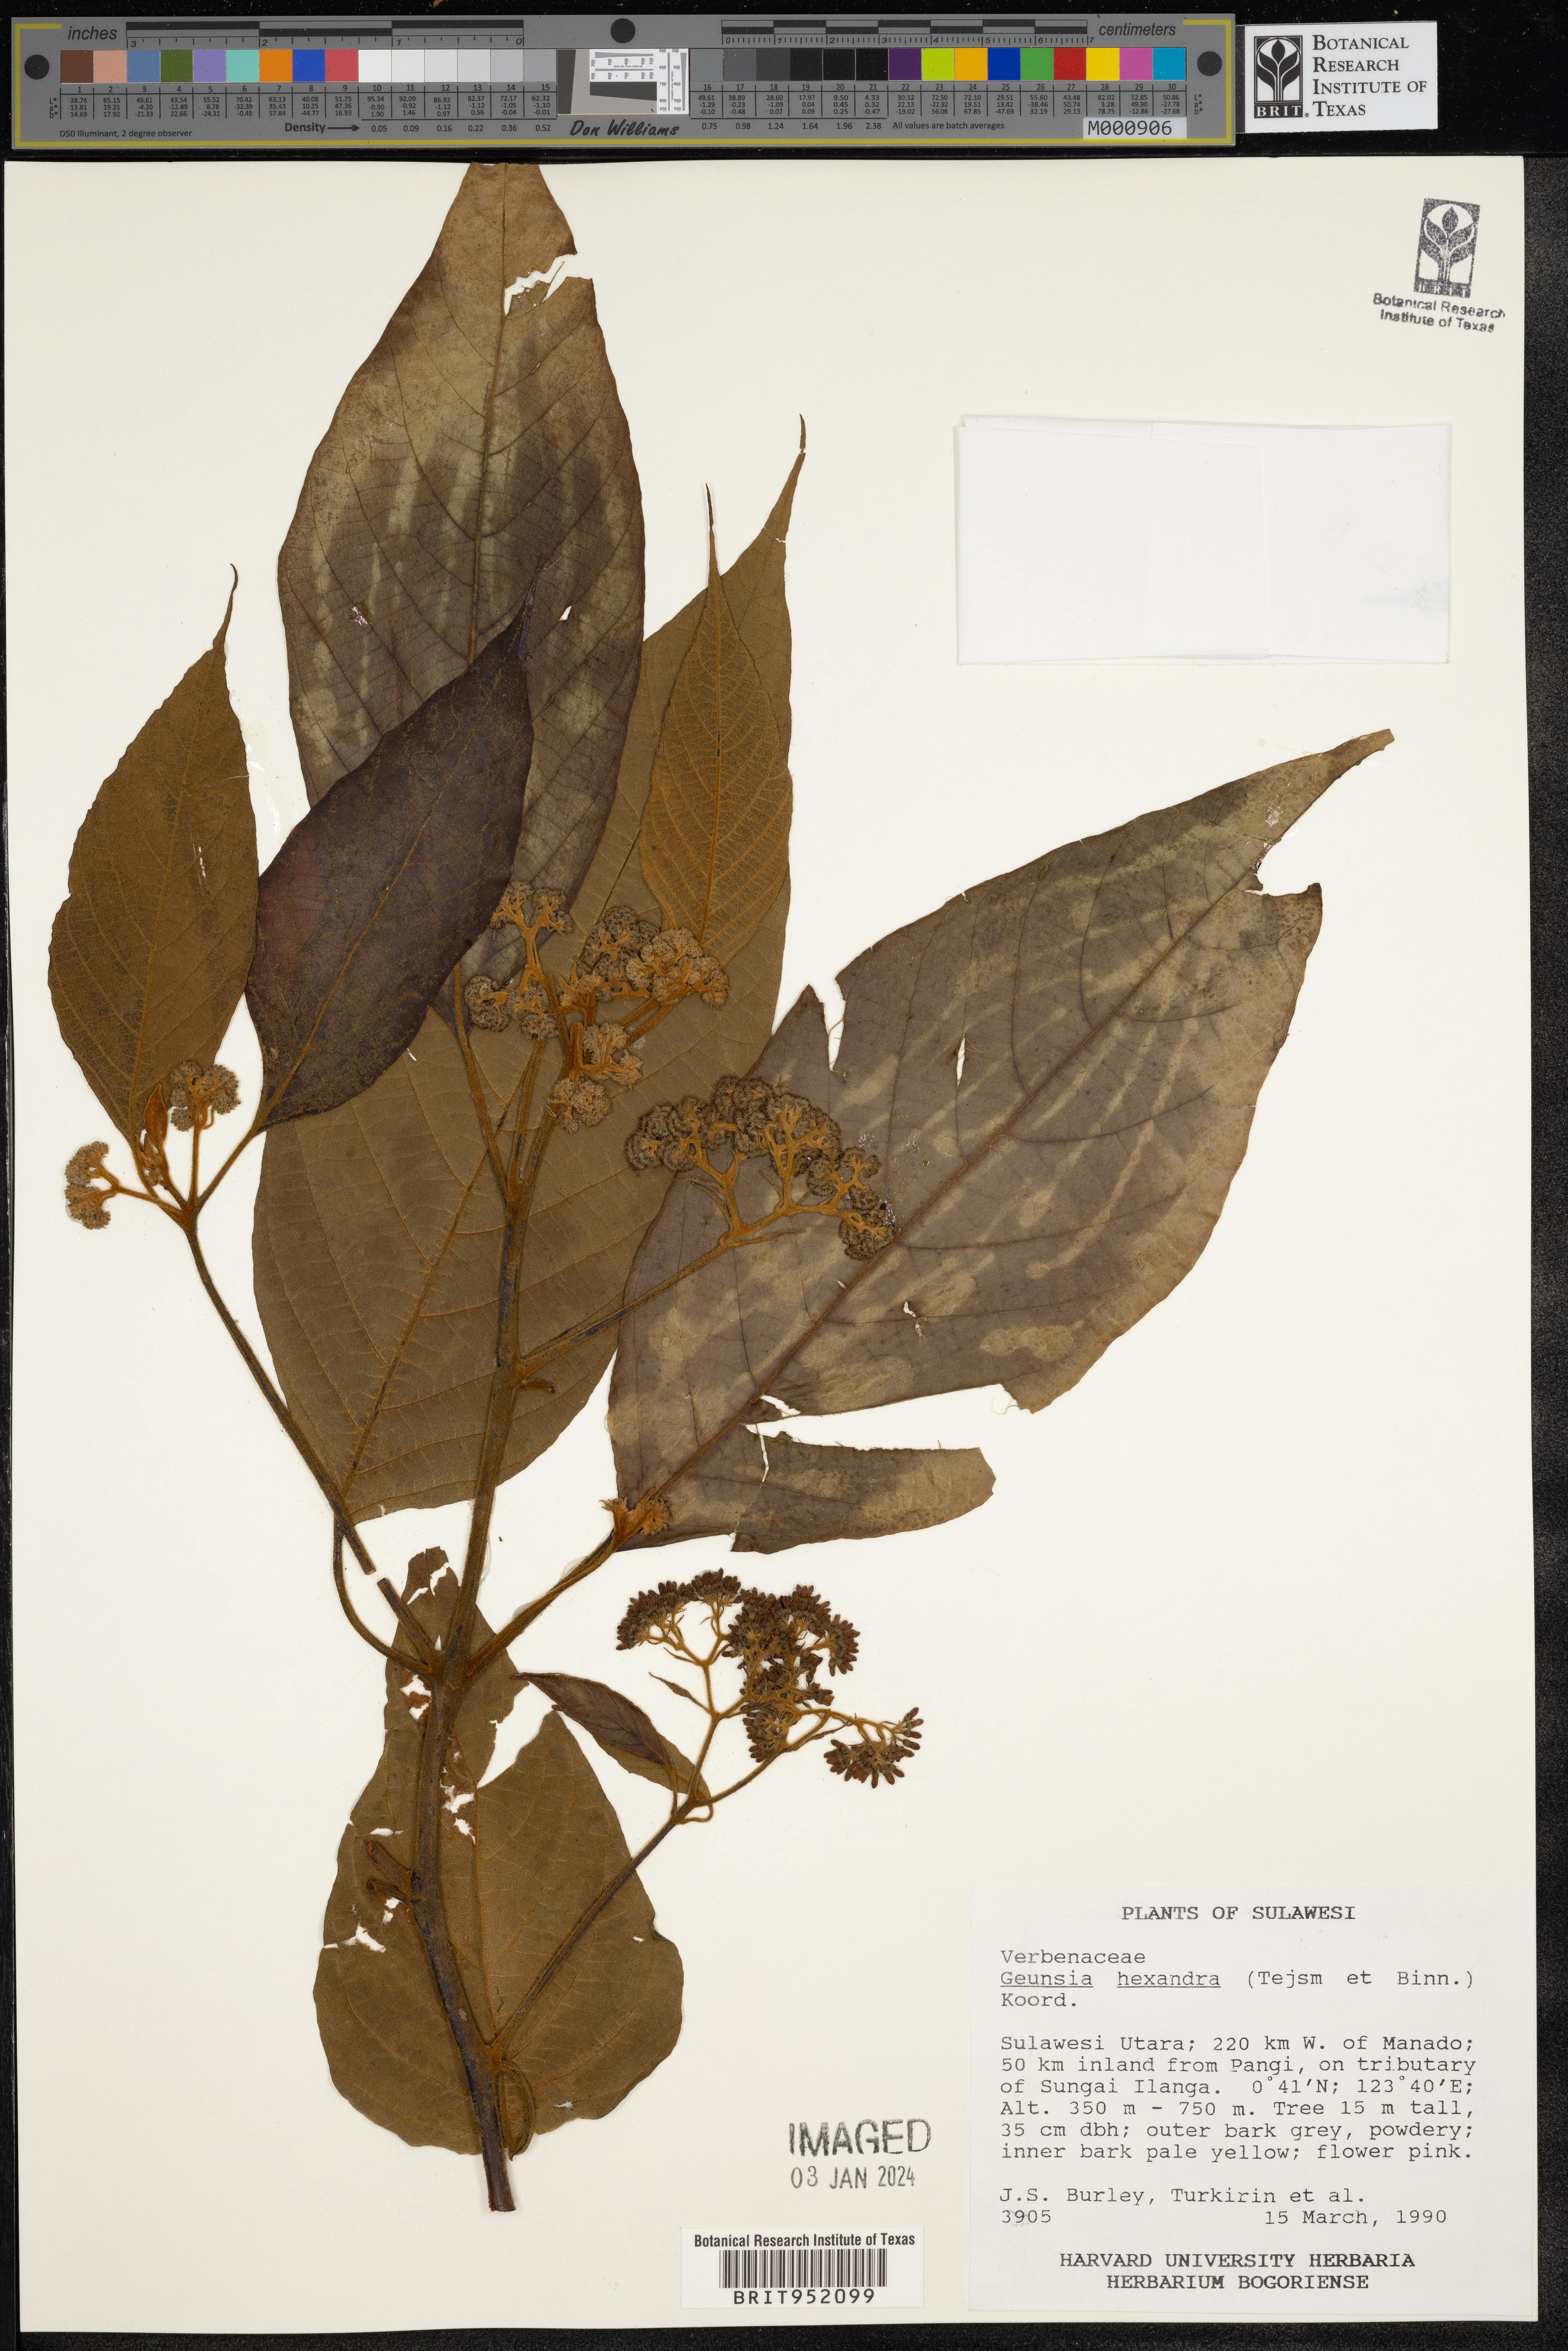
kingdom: Plantae
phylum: Tracheophyta
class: Magnoliopsida
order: Lamiales
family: Lamiaceae
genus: Callicarpa
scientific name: Callicarpa
